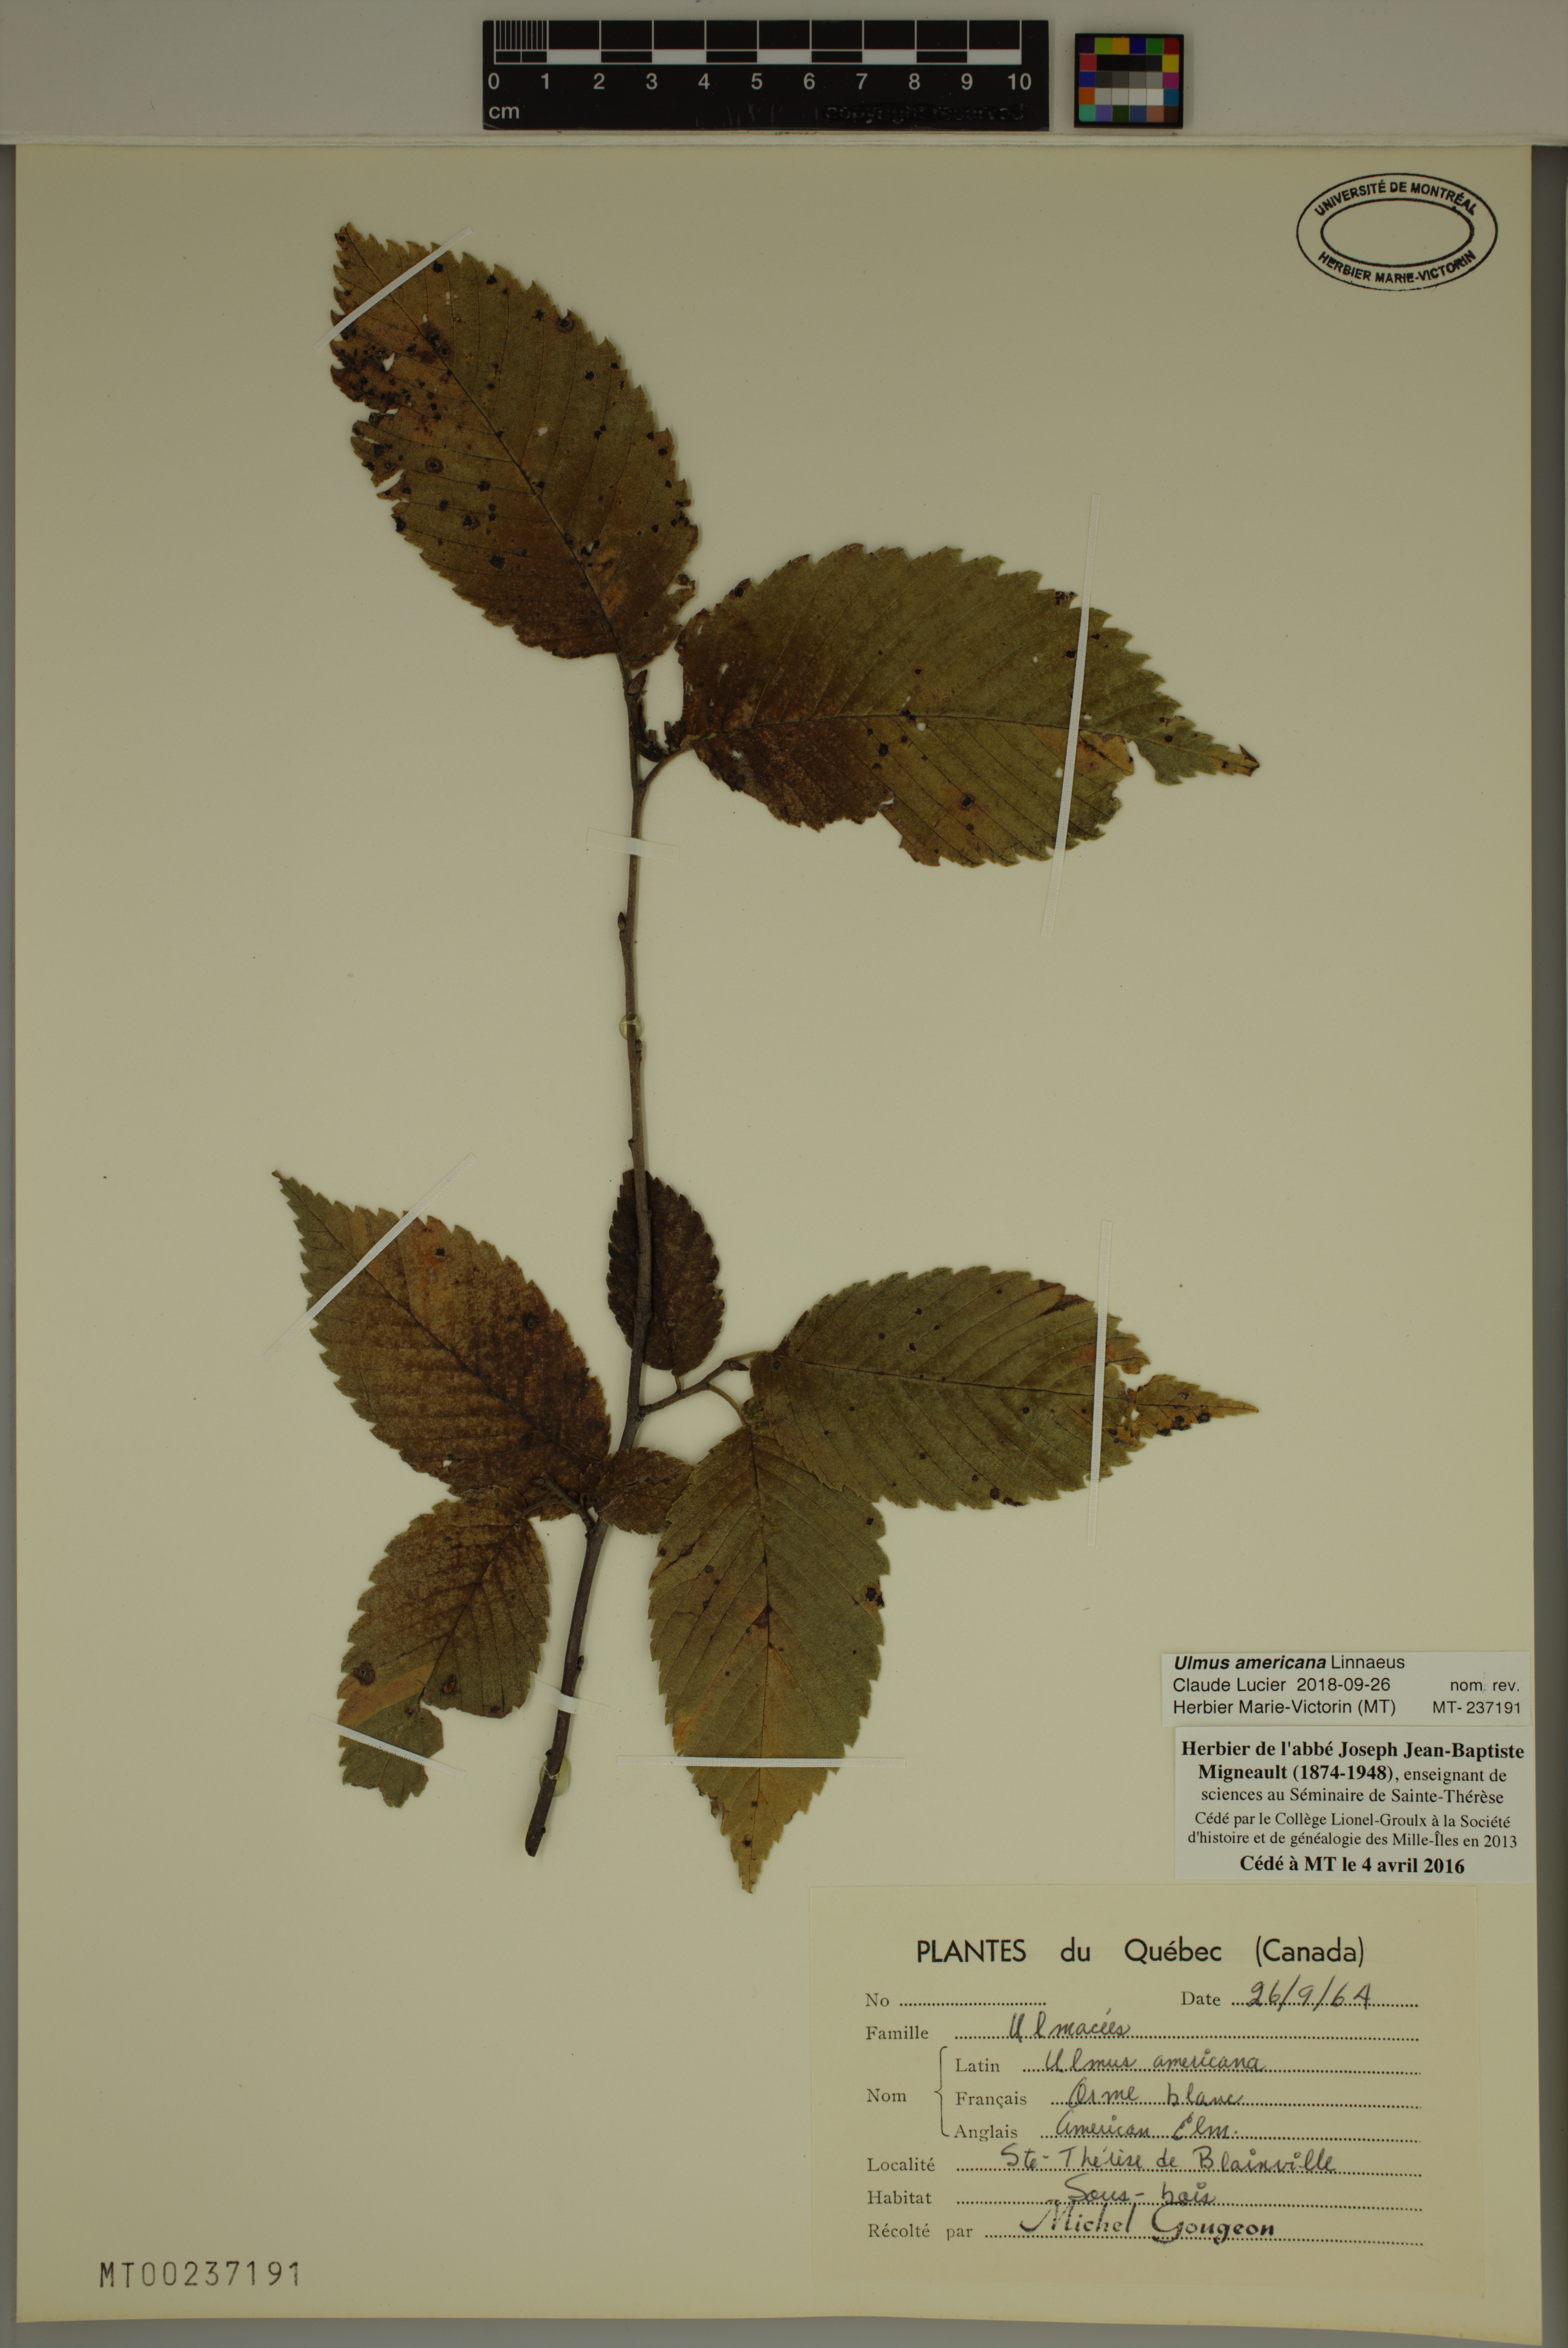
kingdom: Plantae
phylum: Tracheophyta
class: Magnoliopsida
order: Rosales
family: Ulmaceae
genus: Ulmus
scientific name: Ulmus americana
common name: American elm
